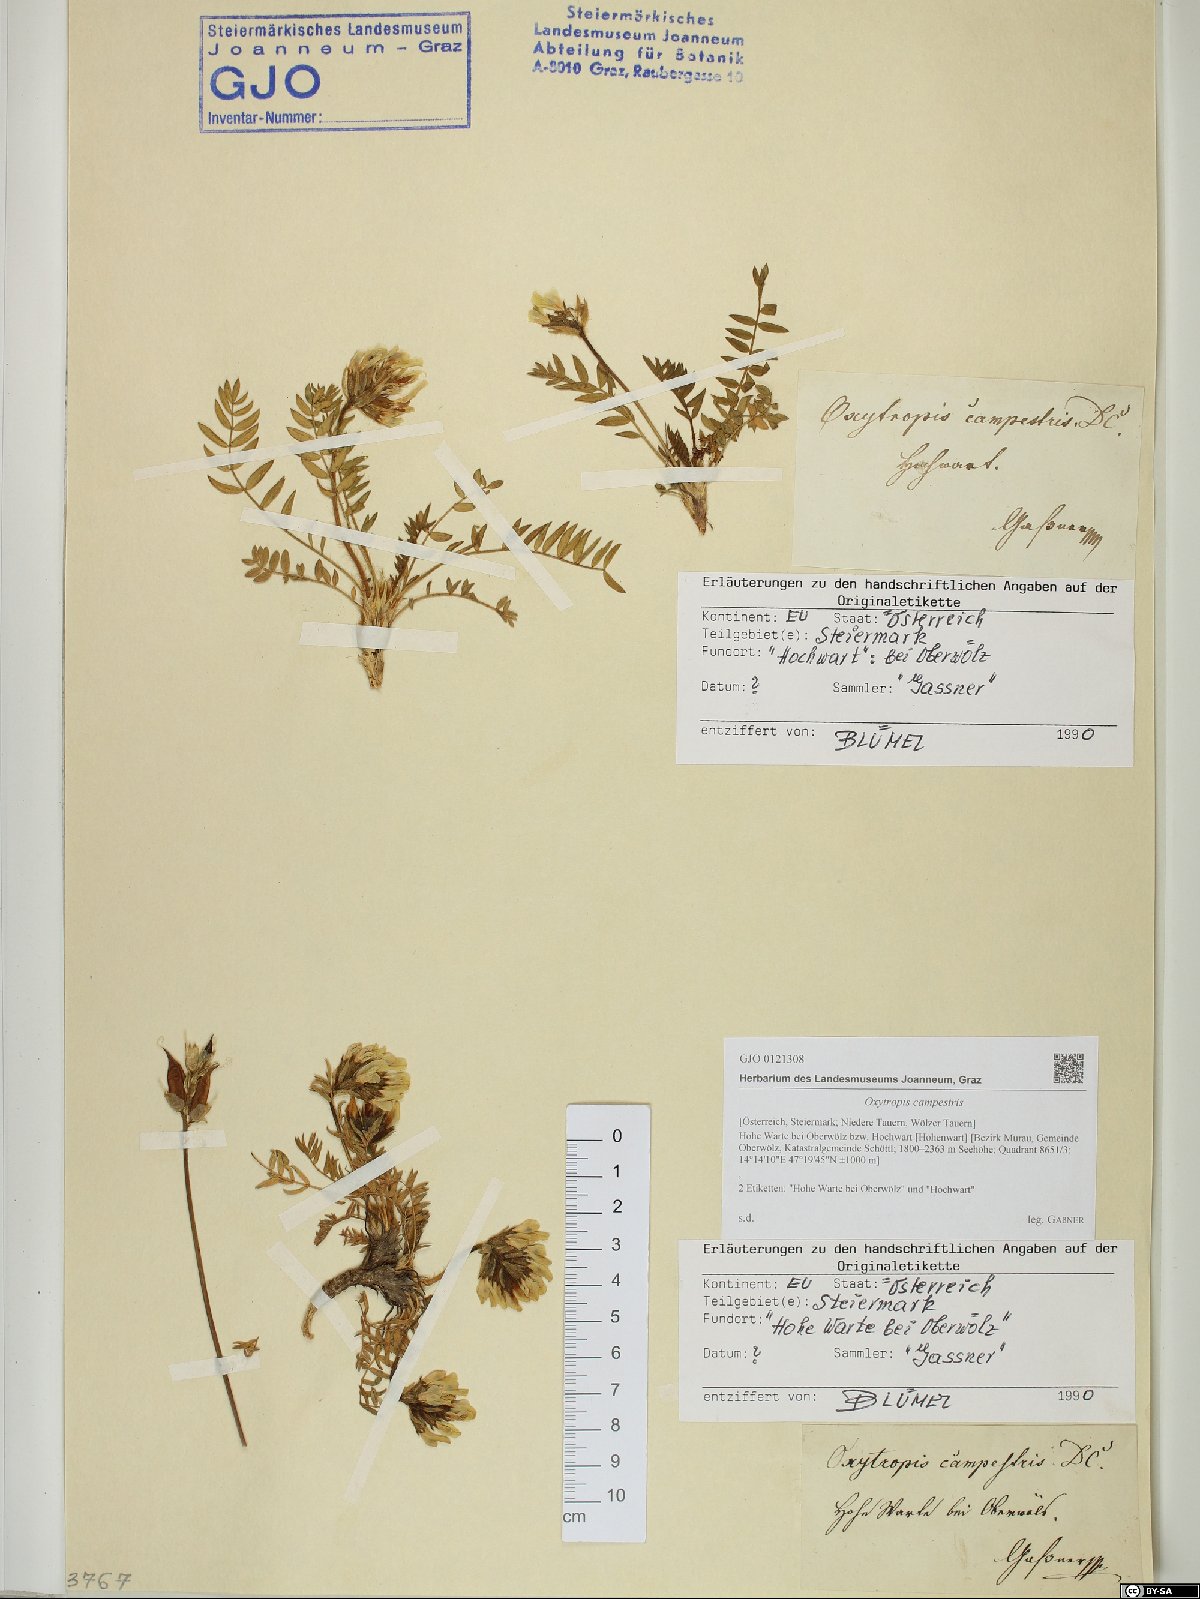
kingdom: Plantae
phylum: Tracheophyta
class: Magnoliopsida
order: Fabales
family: Fabaceae
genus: Oxytropis
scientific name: Oxytropis campestris
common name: Field locoweed
